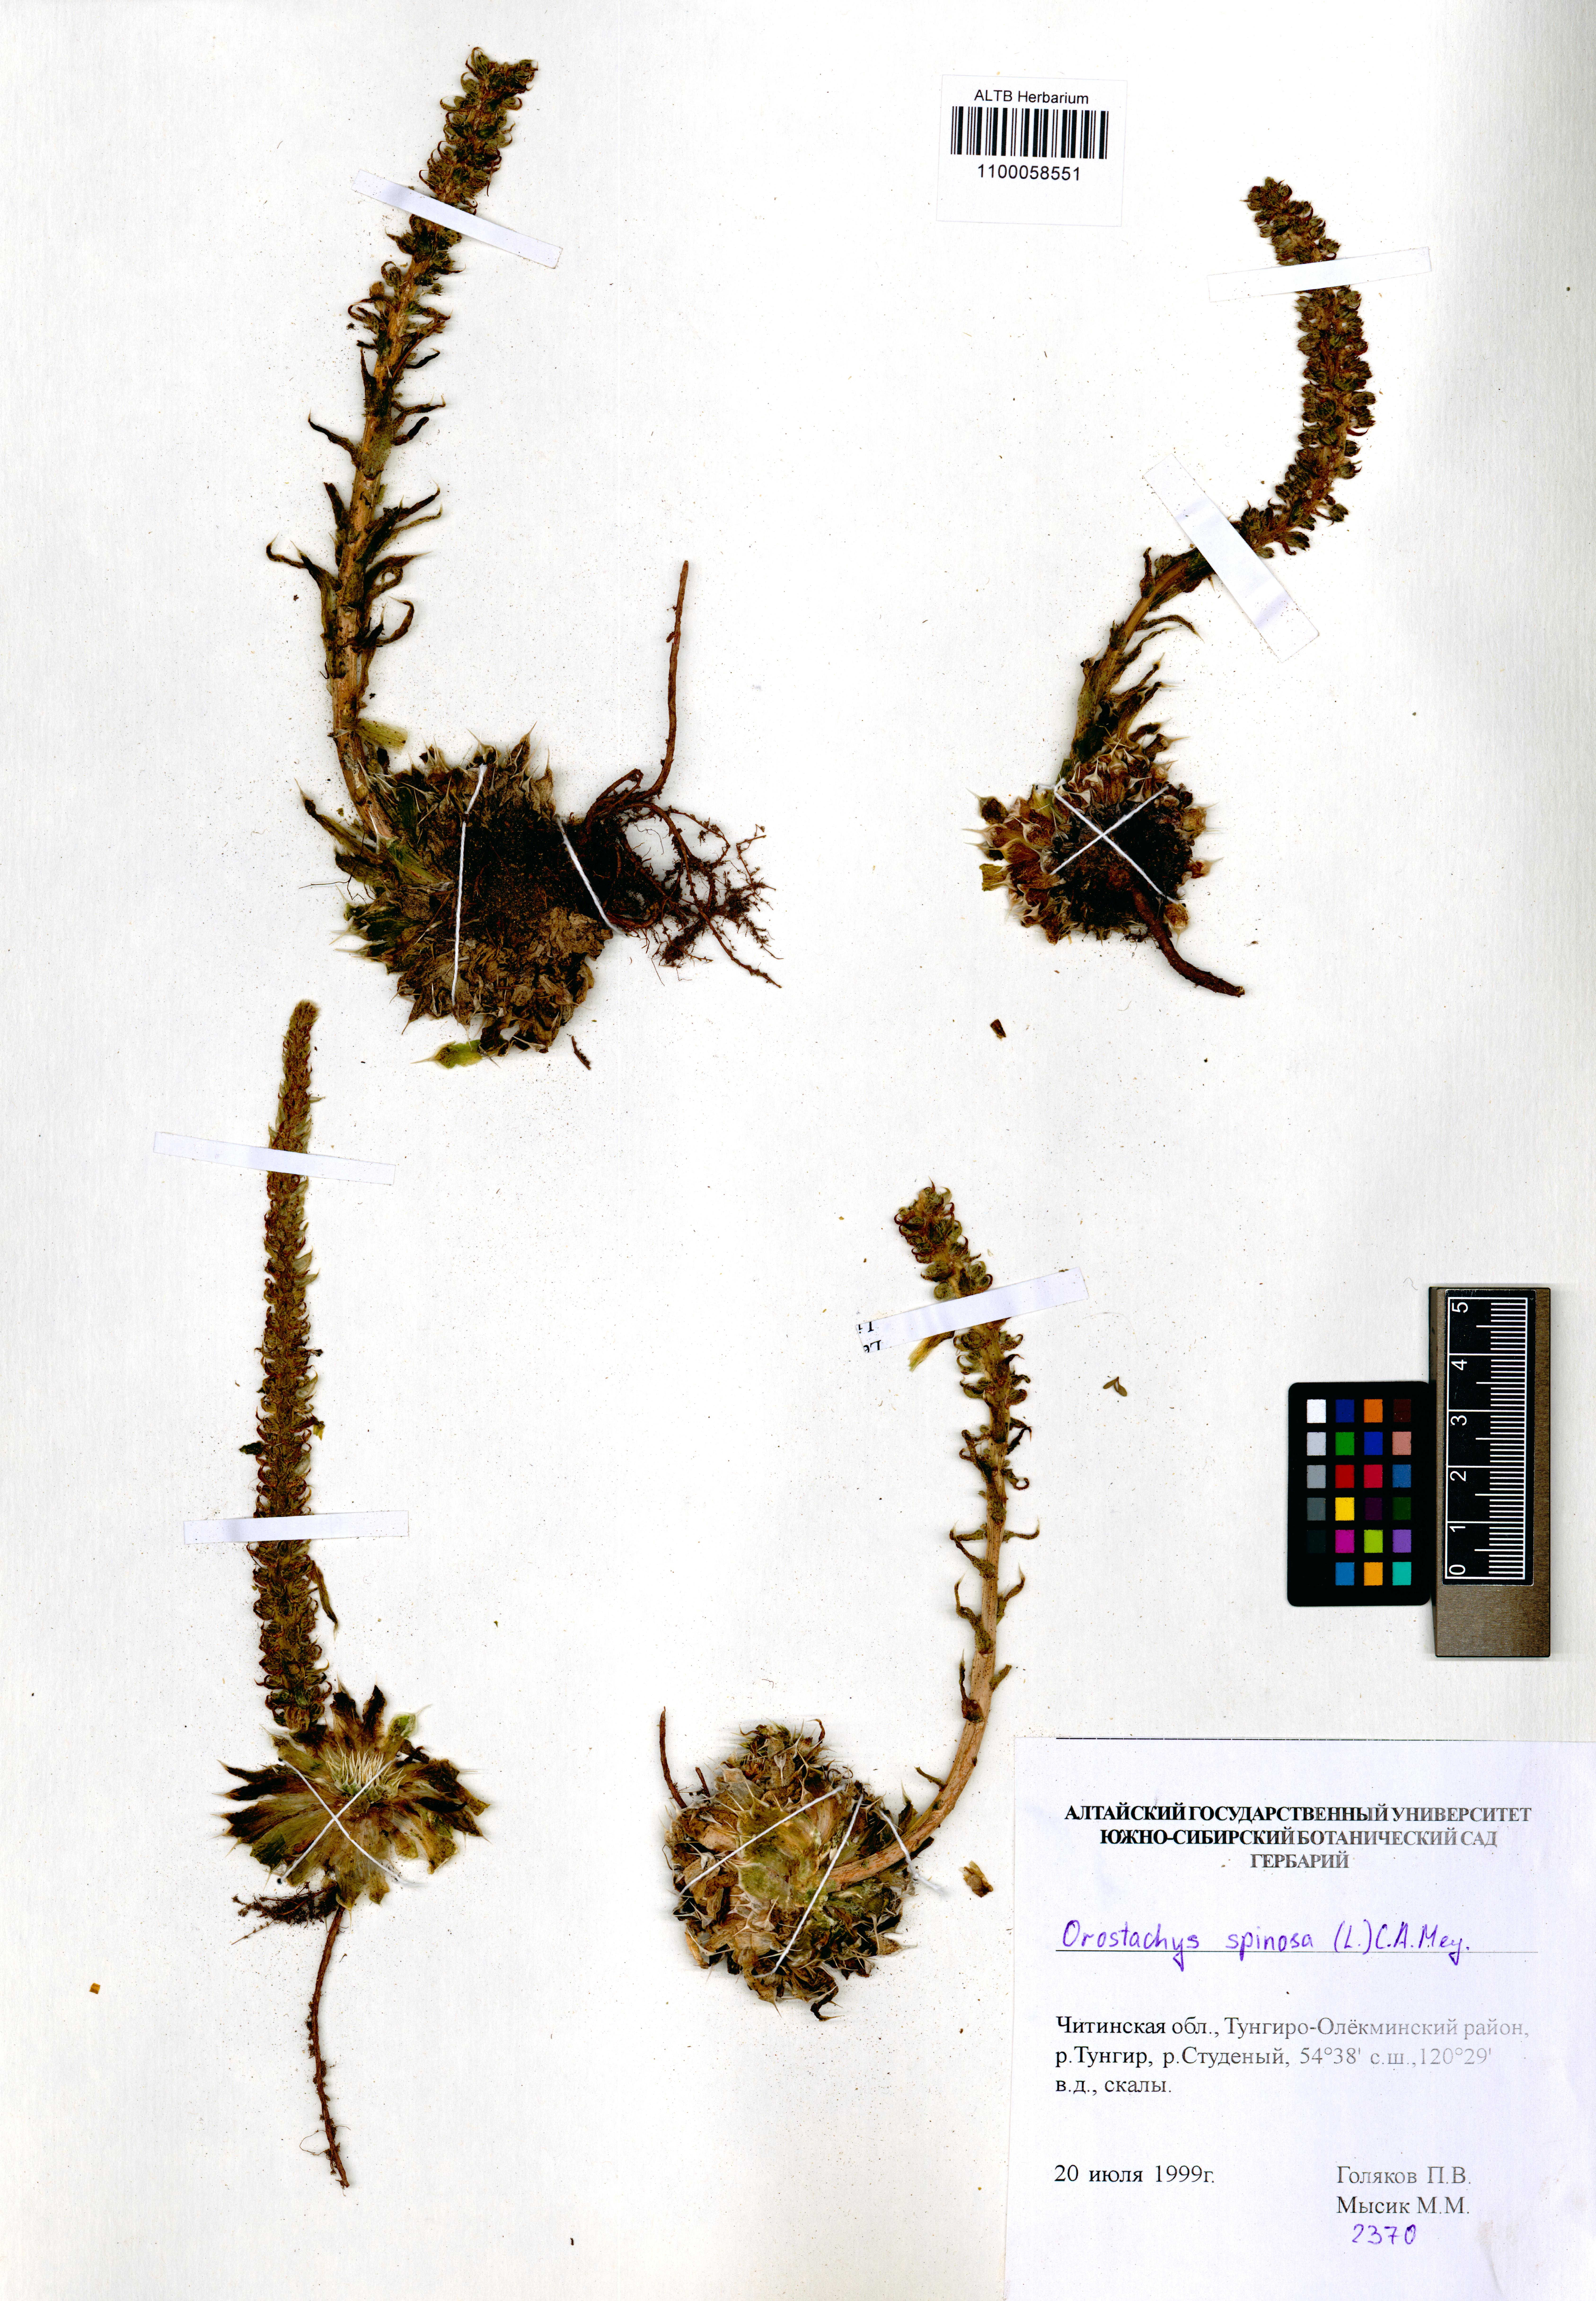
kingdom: Plantae
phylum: Tracheophyta
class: Magnoliopsida
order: Saxifragales
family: Crassulaceae
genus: Orostachys
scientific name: Orostachys spinosa
